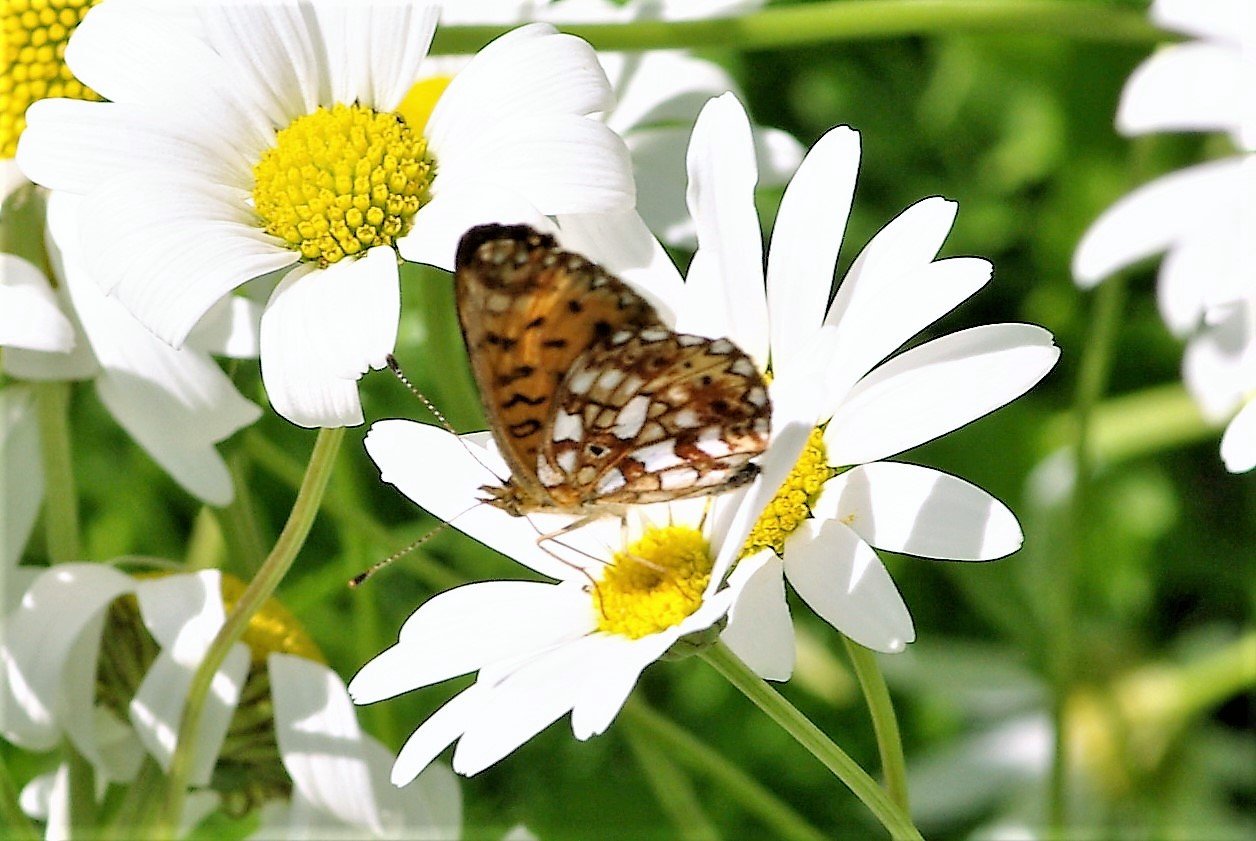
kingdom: Animalia
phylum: Arthropoda
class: Insecta
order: Lepidoptera
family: Nymphalidae
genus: Boloria
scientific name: Boloria selene
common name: Silver-bordered Fritillary
